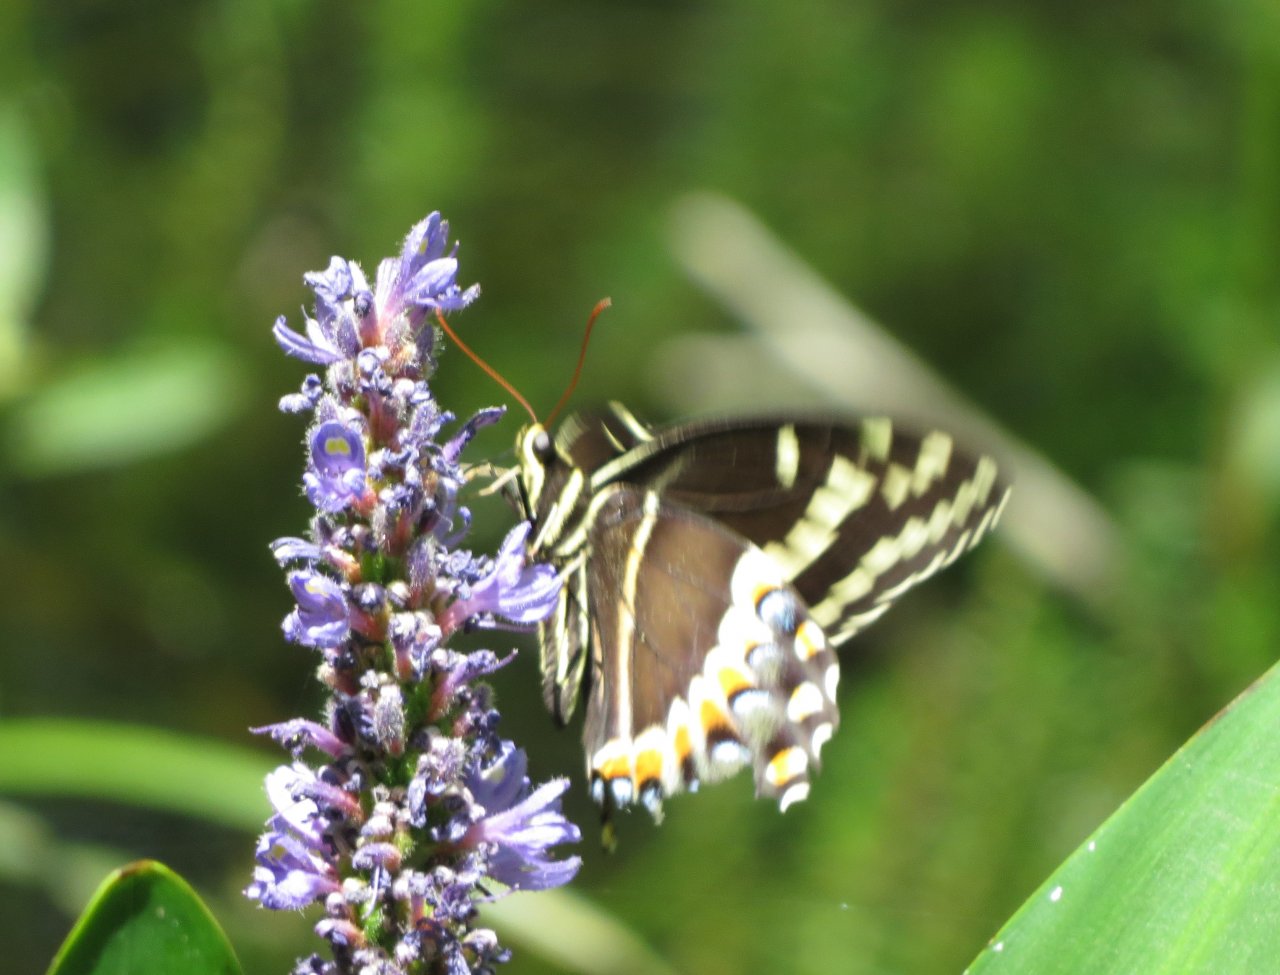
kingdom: Animalia
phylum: Arthropoda
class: Insecta
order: Lepidoptera
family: Papilionidae
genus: Pterourus
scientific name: Pterourus palamedes
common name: Palamedes Swallowtail
